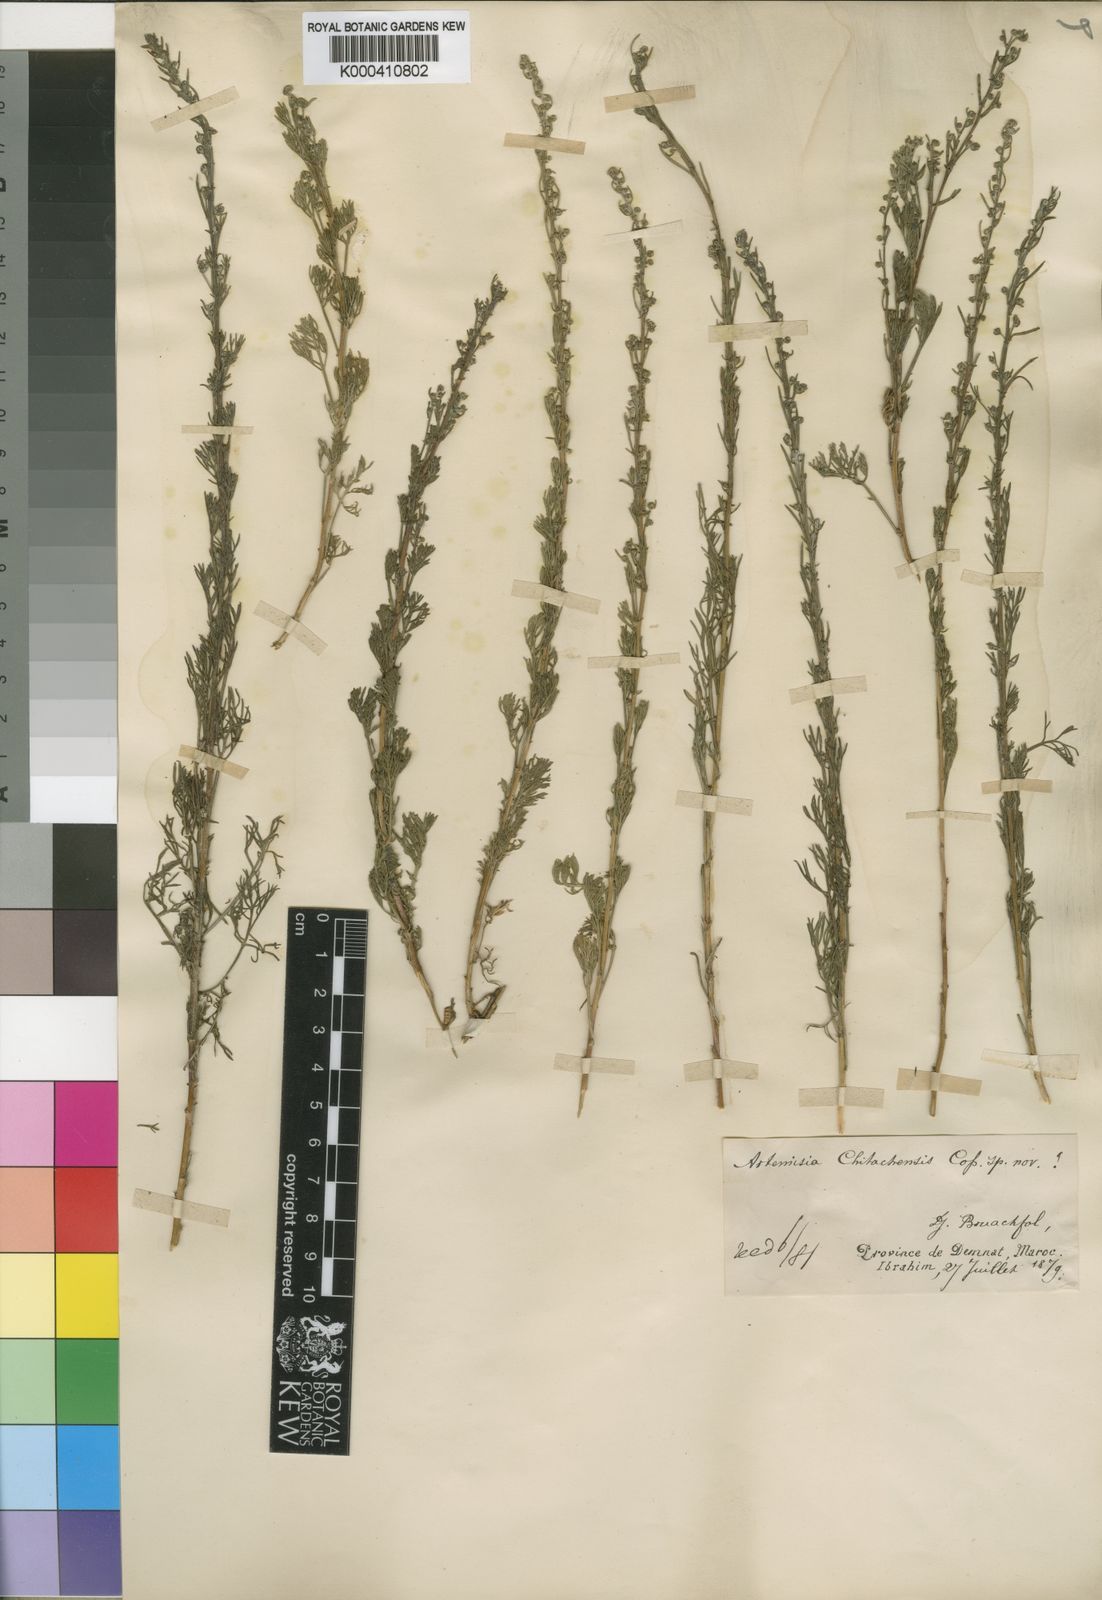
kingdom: Plantae
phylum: Tracheophyta
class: Magnoliopsida
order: Asterales
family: Asteraceae
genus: Artemisia
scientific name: Artemisia alba
